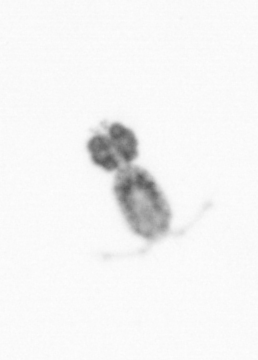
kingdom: Animalia
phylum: Arthropoda
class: Copepoda
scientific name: Copepoda
